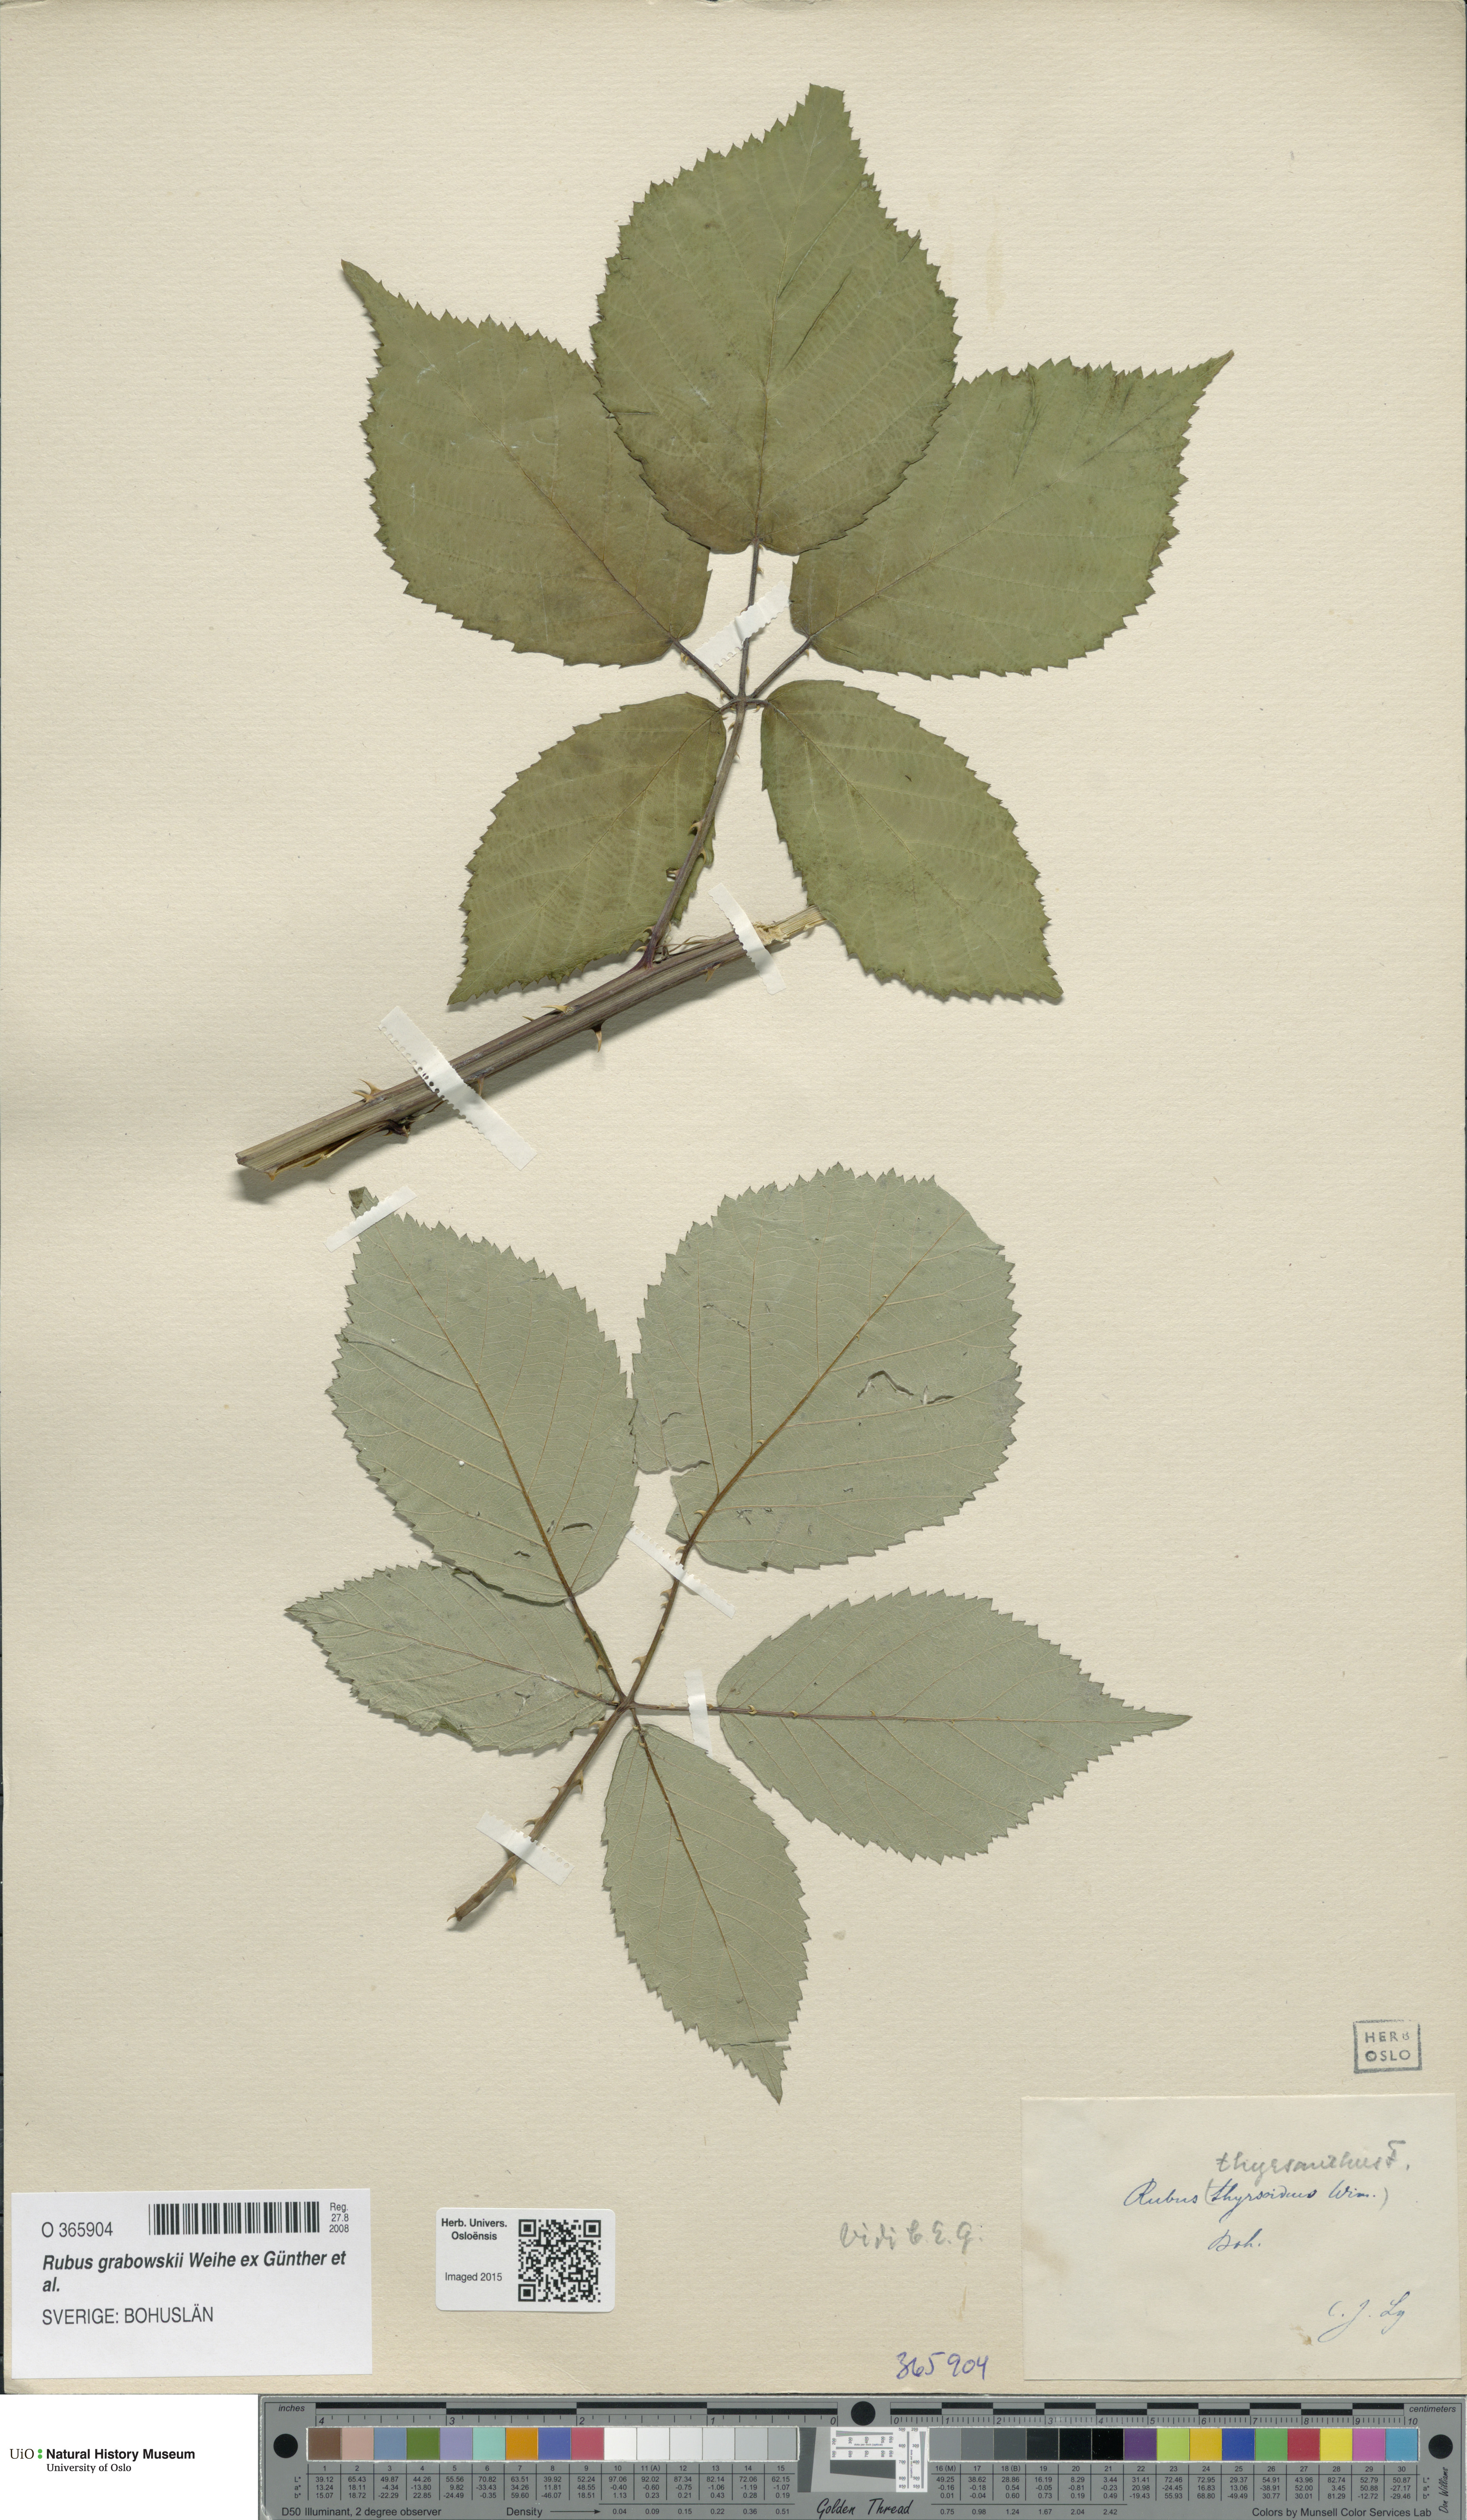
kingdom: Plantae
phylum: Tracheophyta
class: Magnoliopsida
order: Rosales
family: Rosaceae
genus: Rubus
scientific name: Rubus grabowskii
